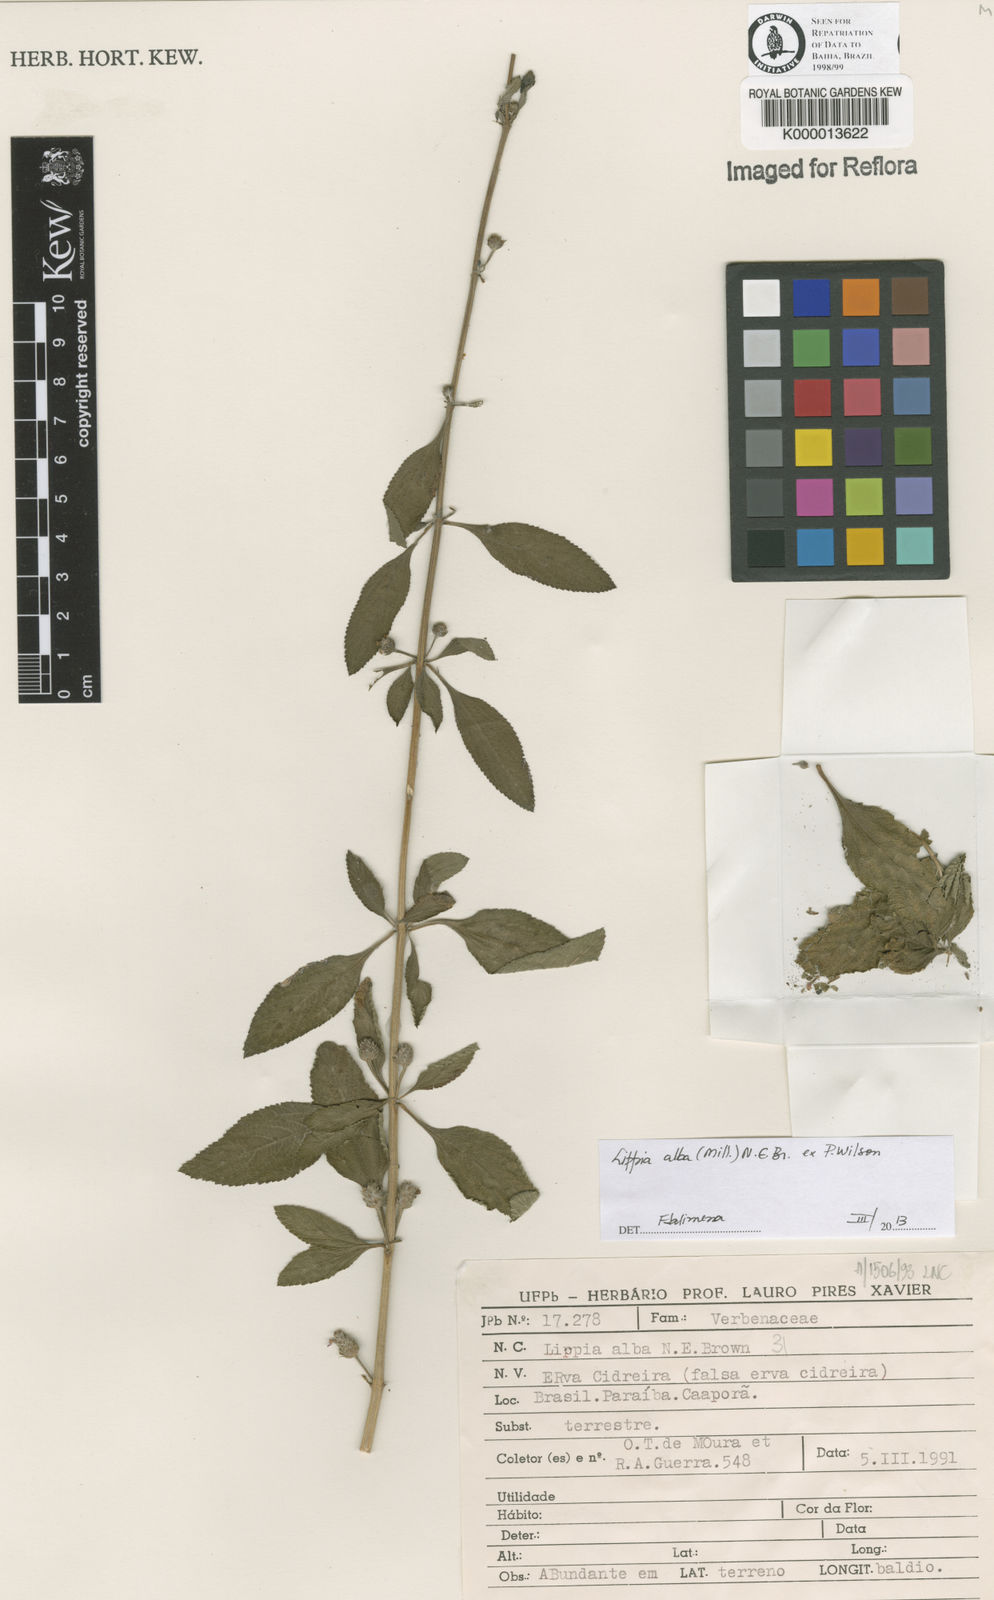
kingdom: Plantae
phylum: Tracheophyta
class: Magnoliopsida
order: Lamiales
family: Verbenaceae
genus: Lippia
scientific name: Lippia
